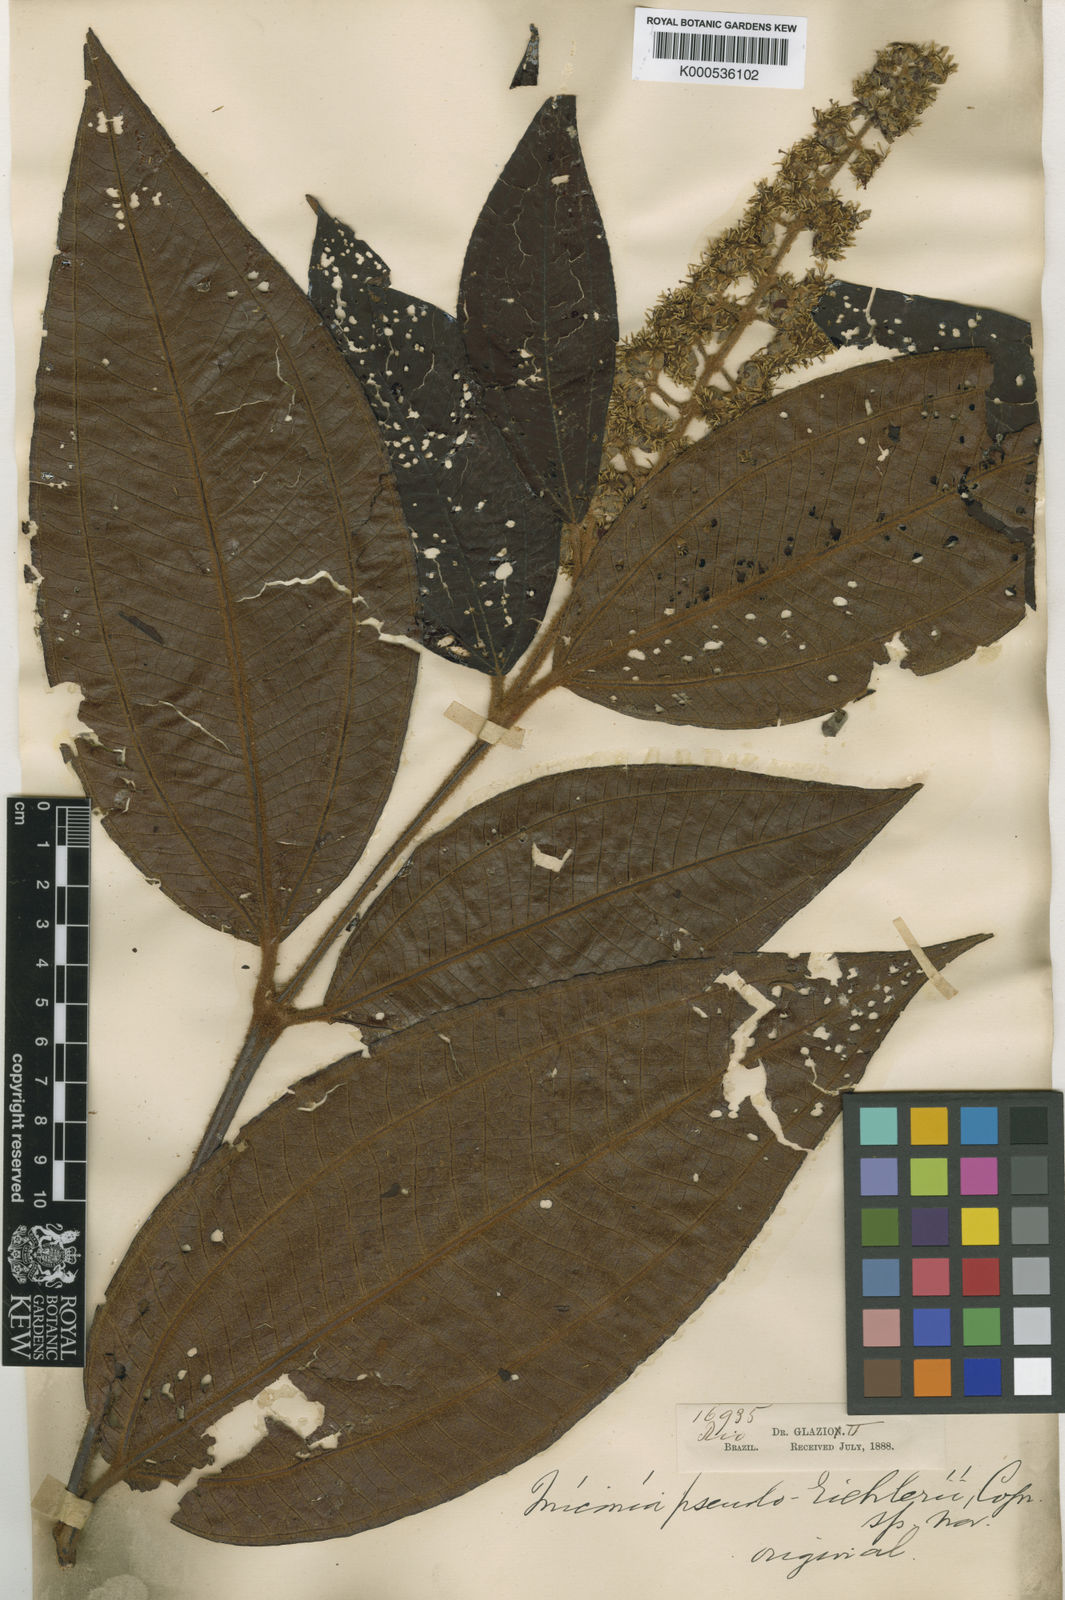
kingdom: Plantae
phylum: Tracheophyta
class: Magnoliopsida
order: Myrtales
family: Melastomataceae
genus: Miconia
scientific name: Miconia valtheri
